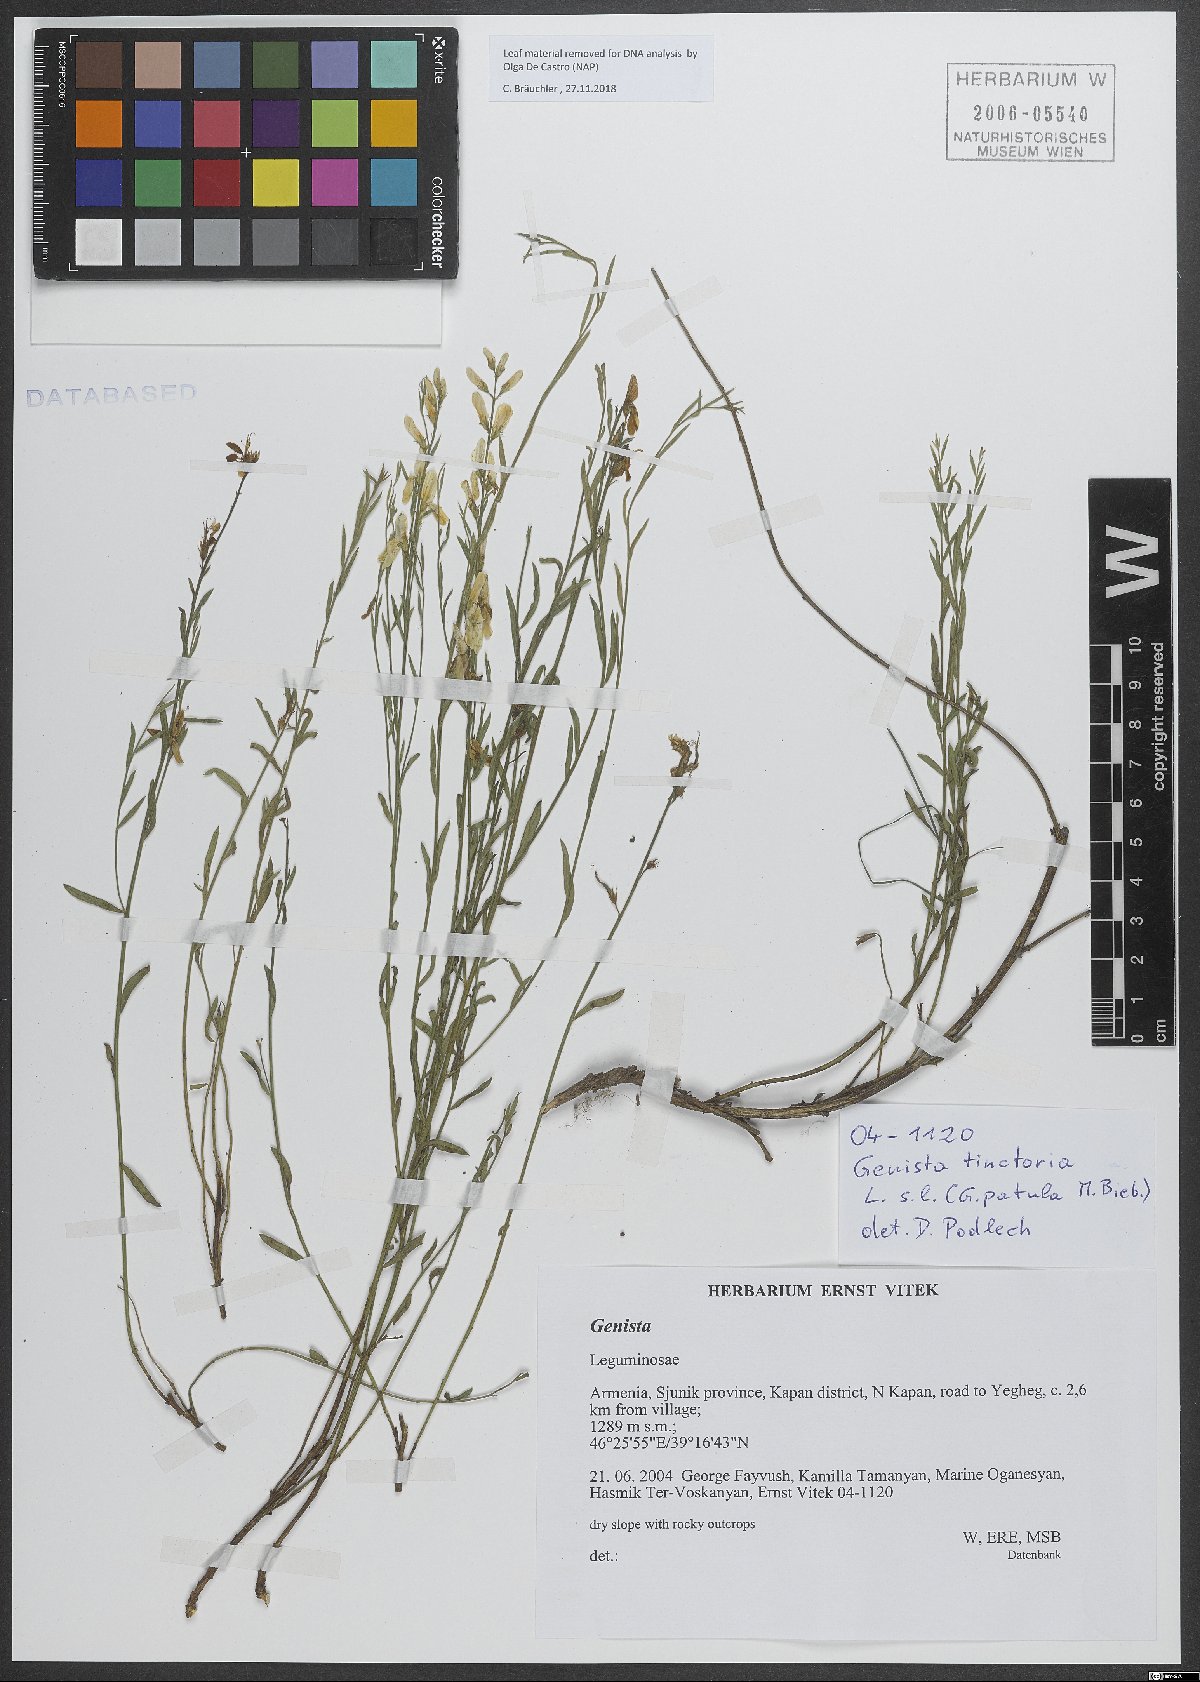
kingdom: Plantae
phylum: Tracheophyta
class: Magnoliopsida
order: Fabales
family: Fabaceae
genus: Genista
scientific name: Genista tinctoria
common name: Dyer's greenweed
